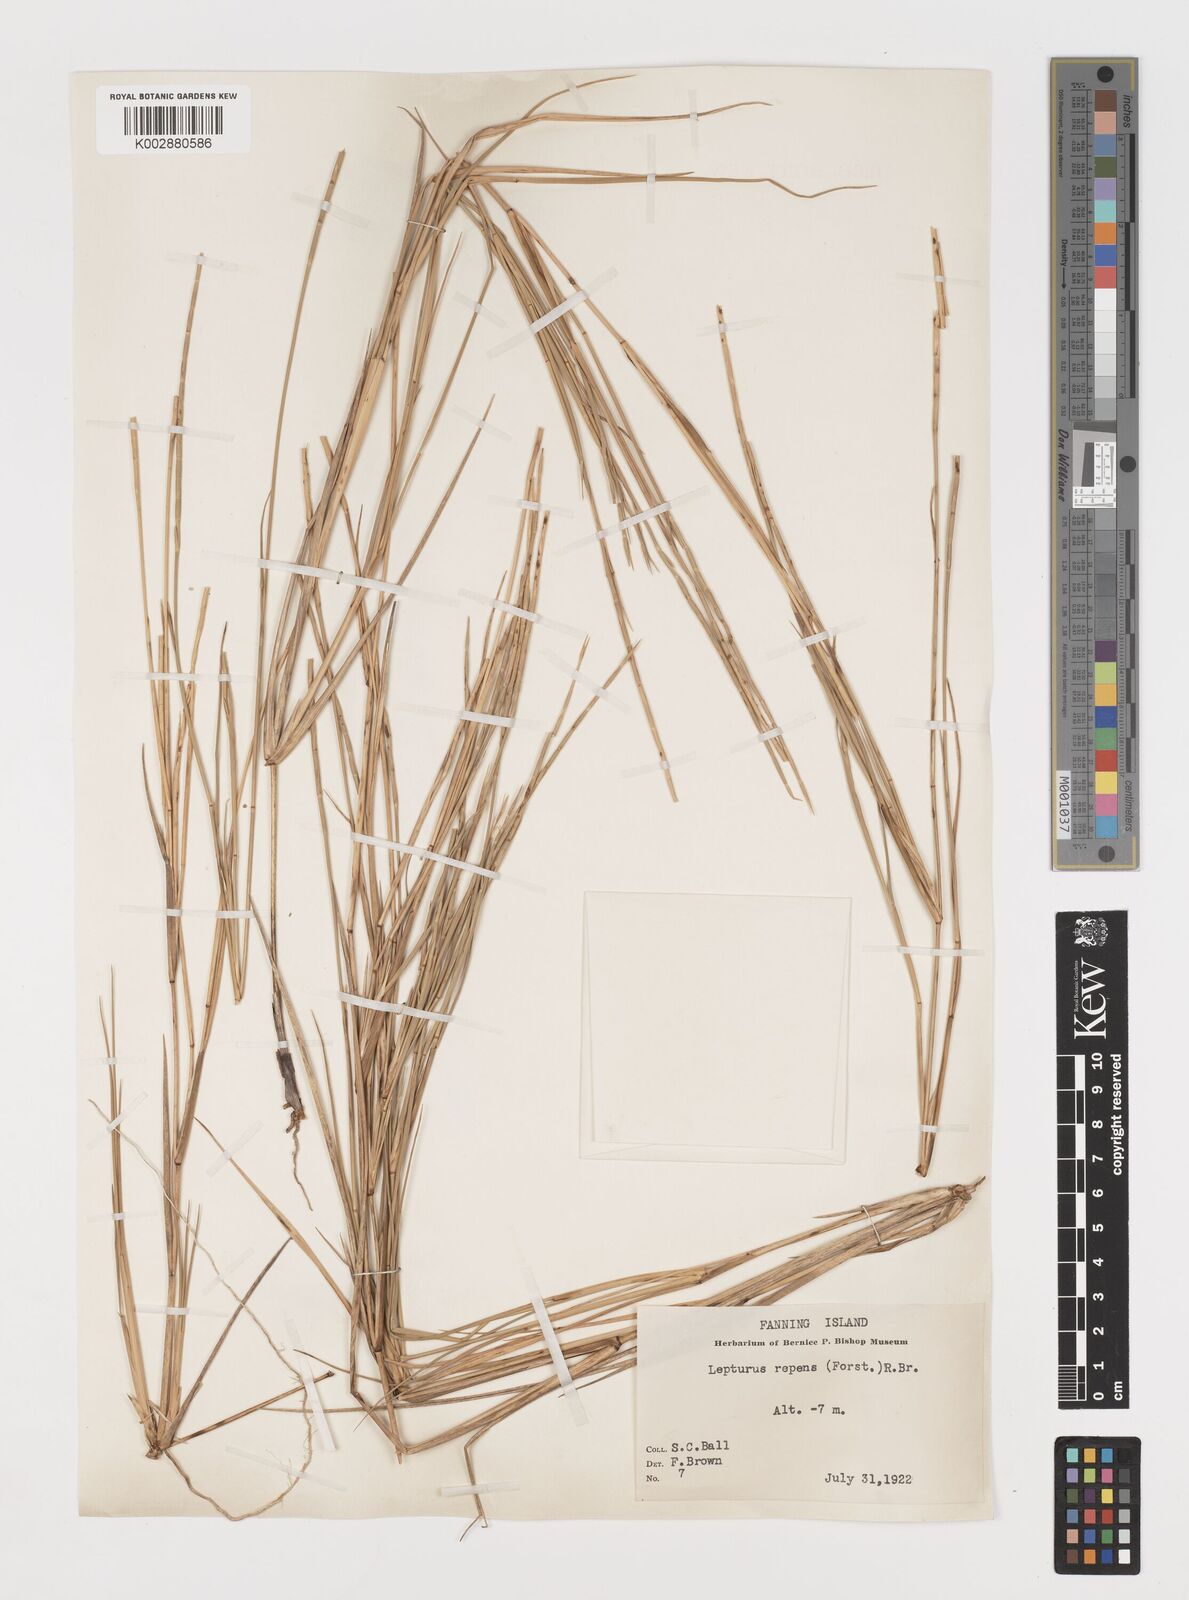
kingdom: Plantae
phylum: Tracheophyta
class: Liliopsida
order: Poales
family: Poaceae
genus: Lepturus
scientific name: Lepturus repens
